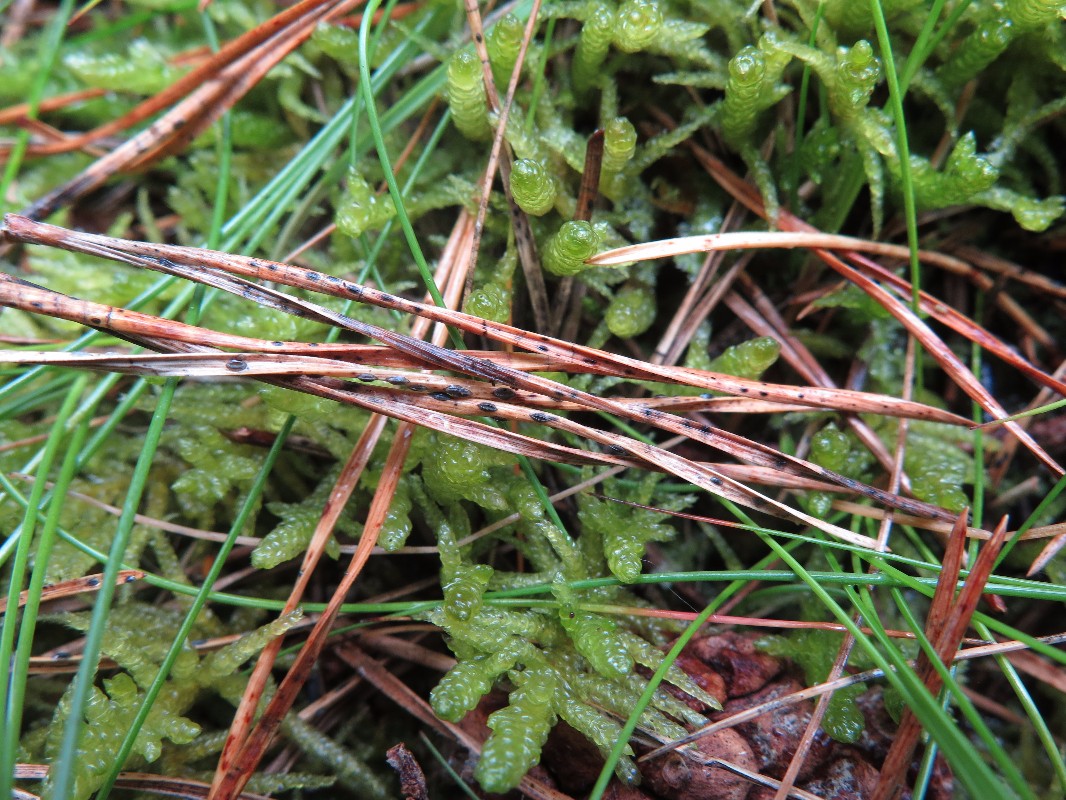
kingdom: Fungi
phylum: Ascomycota
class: Leotiomycetes
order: Rhytismatales
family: Rhytismataceae
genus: Lophodermium
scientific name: Lophodermium pinastri
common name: fyrre-fureplet
